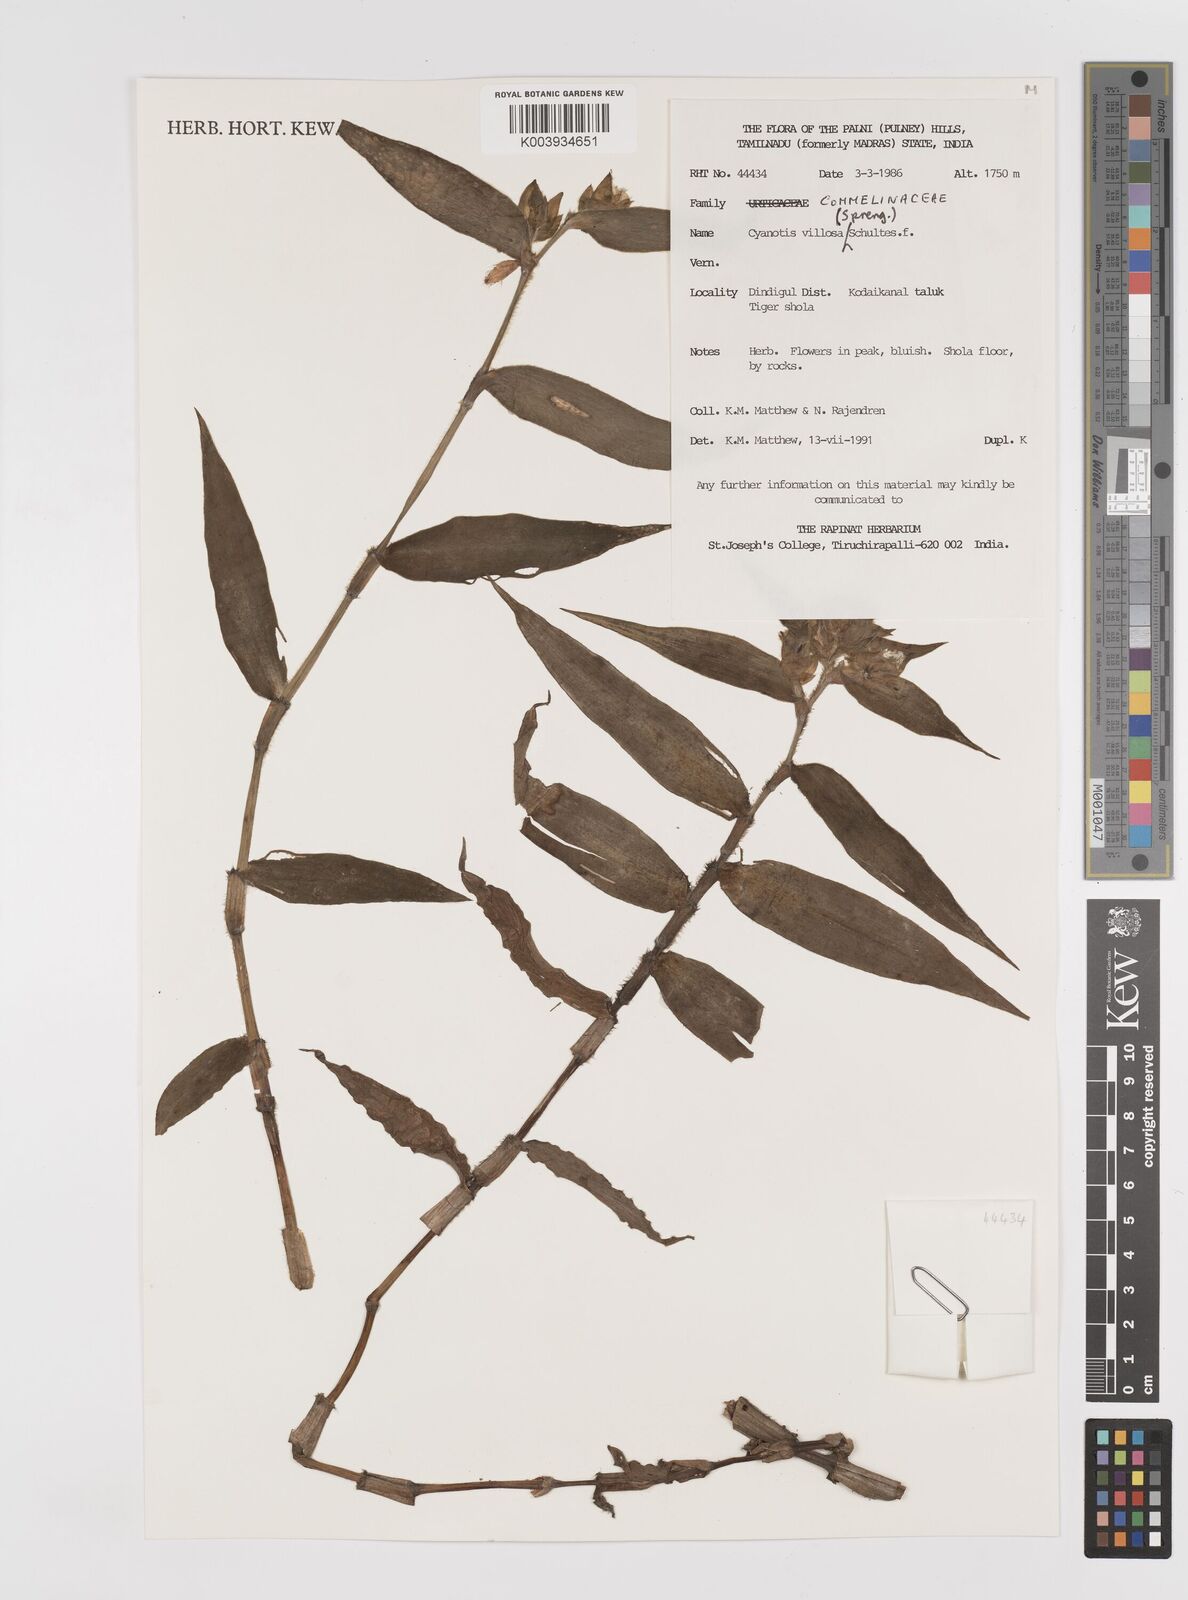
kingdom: Plantae
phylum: Tracheophyta
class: Liliopsida
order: Commelinales
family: Commelinaceae
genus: Cyanotis
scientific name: Cyanotis villosa
